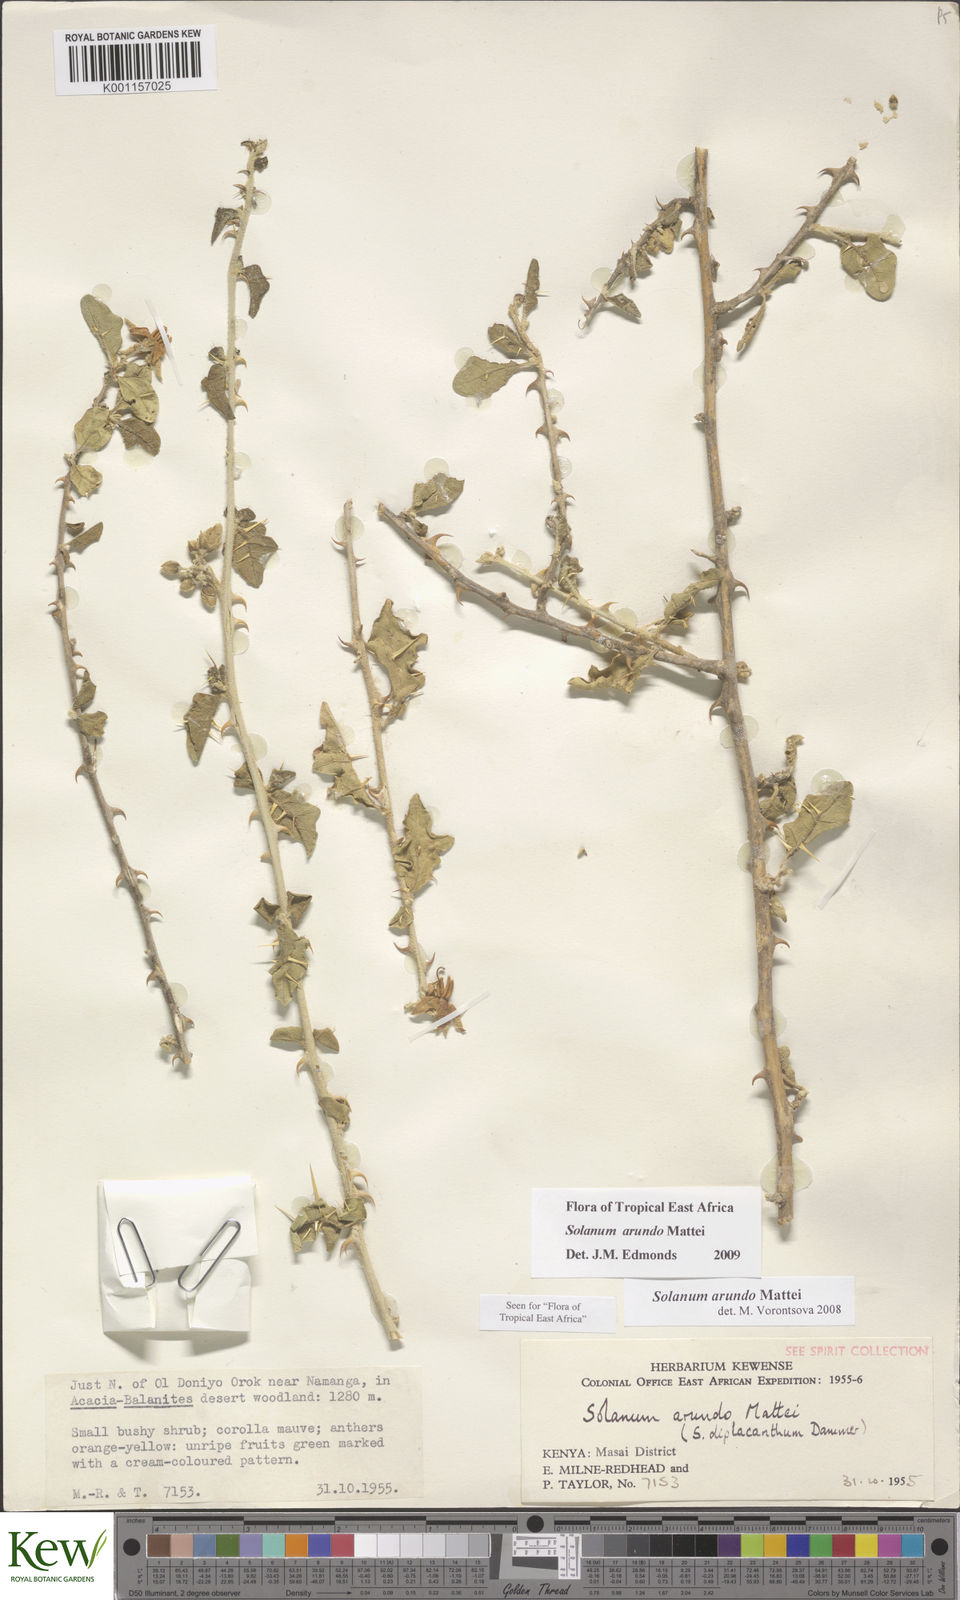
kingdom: Plantae
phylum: Tracheophyta
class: Magnoliopsida
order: Solanales
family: Solanaceae
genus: Solanum
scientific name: Solanum arundo
